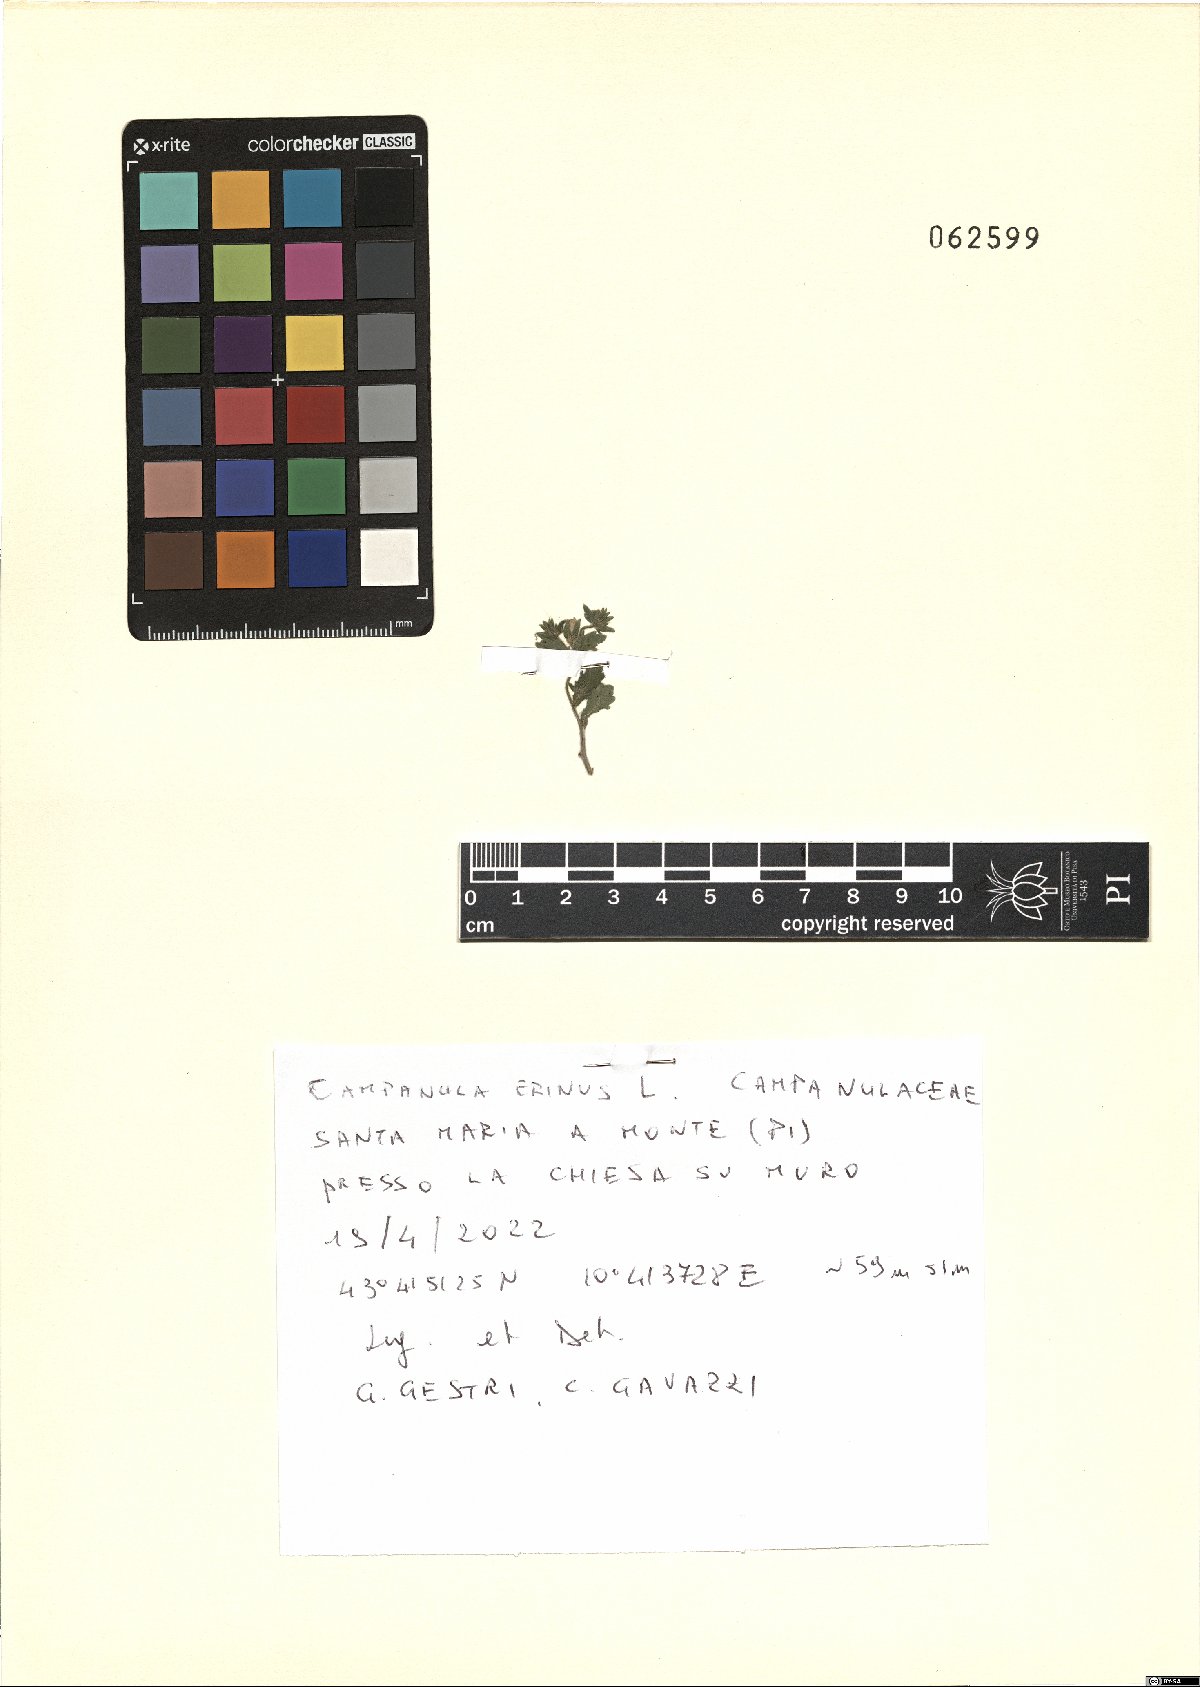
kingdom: Plantae
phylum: Tracheophyta
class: Magnoliopsida
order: Asterales
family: Campanulaceae
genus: Campanula
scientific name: Campanula erinus
